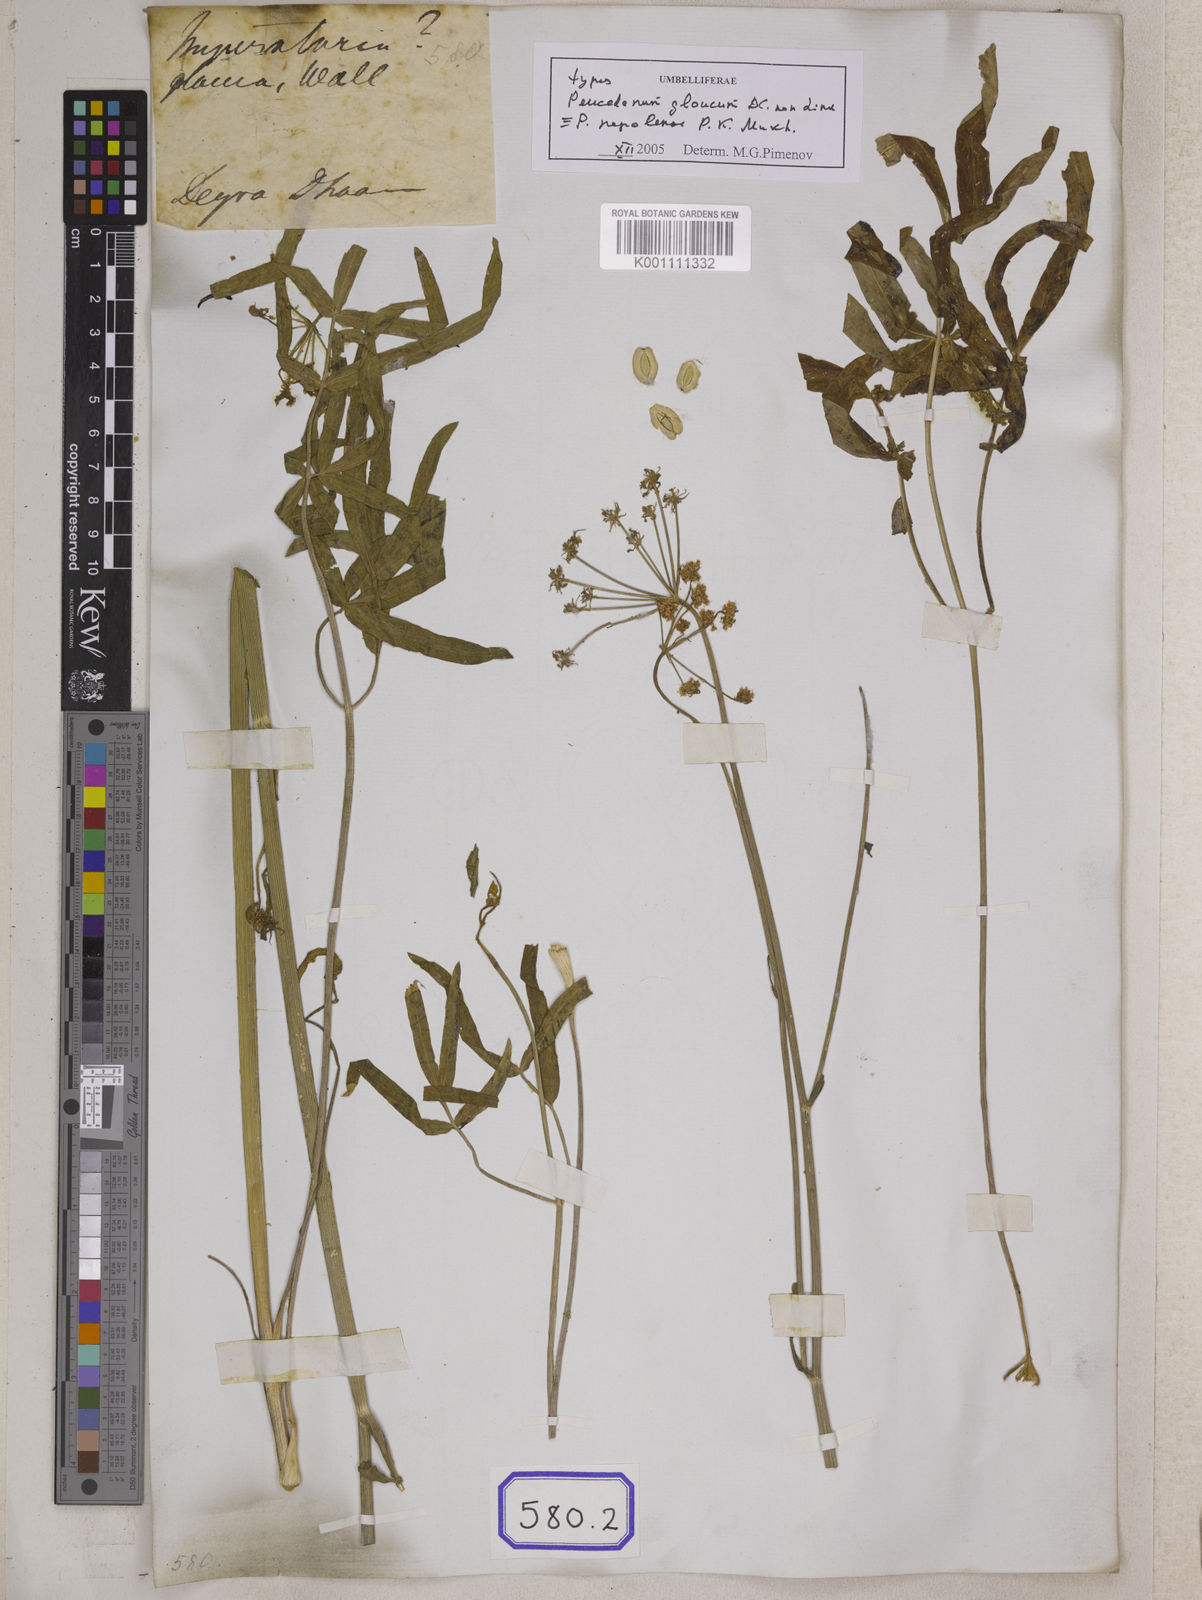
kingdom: Plantae
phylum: Tracheophyta
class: Magnoliopsida
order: Apiales
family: Apiaceae
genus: Selinum
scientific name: Selinum
